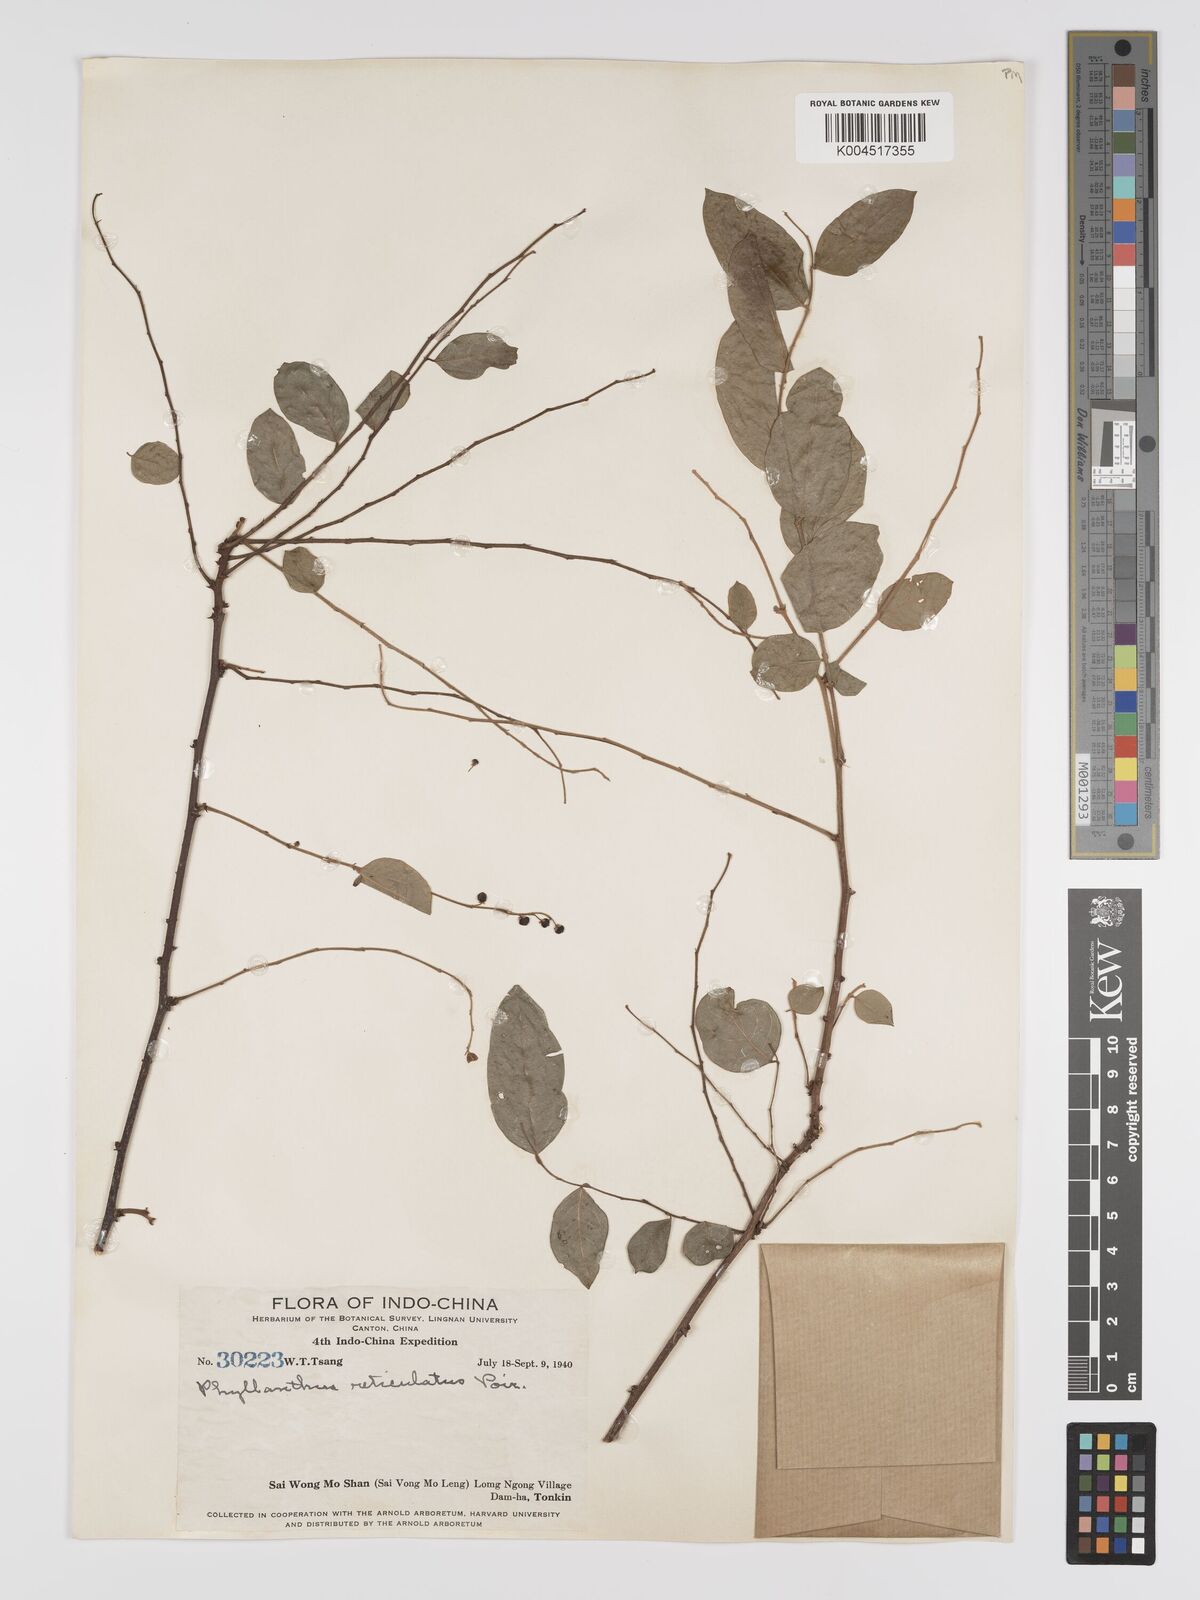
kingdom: Plantae
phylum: Tracheophyta
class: Magnoliopsida
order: Malpighiales
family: Phyllanthaceae
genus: Phyllanthus
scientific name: Phyllanthus reticulatus
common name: Potato bush
